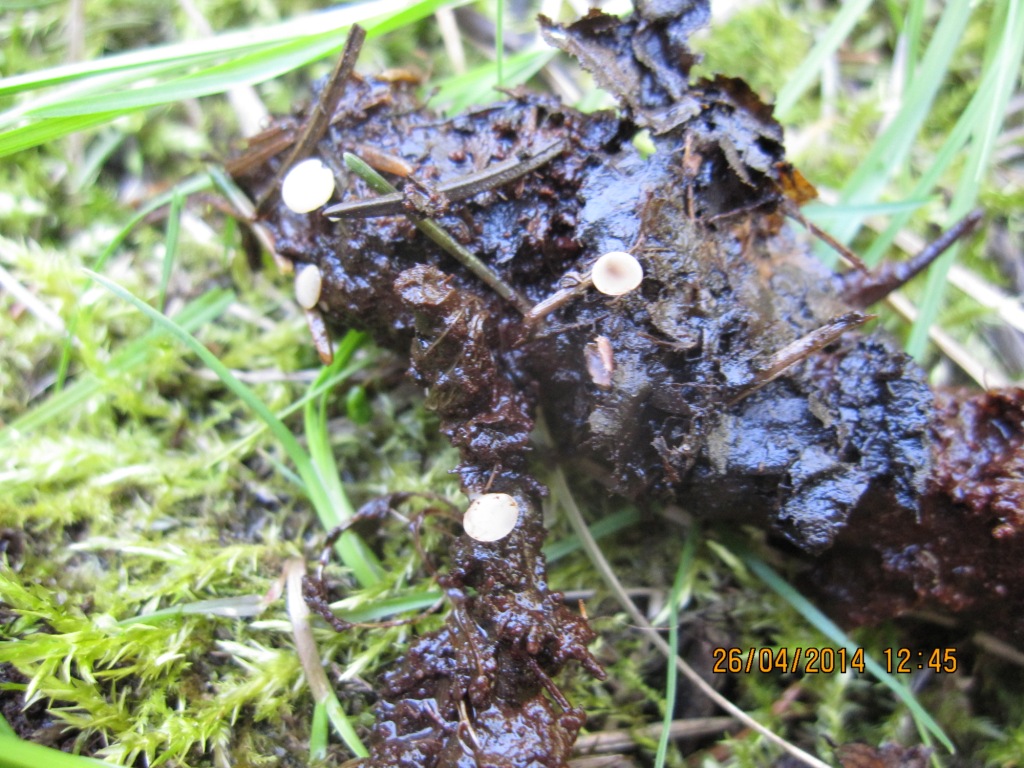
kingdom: Fungi
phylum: Ascomycota
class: Leotiomycetes
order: Helotiales
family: Tricladiaceae
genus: Cudoniella
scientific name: Cudoniella clavus
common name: stor dyndskive
